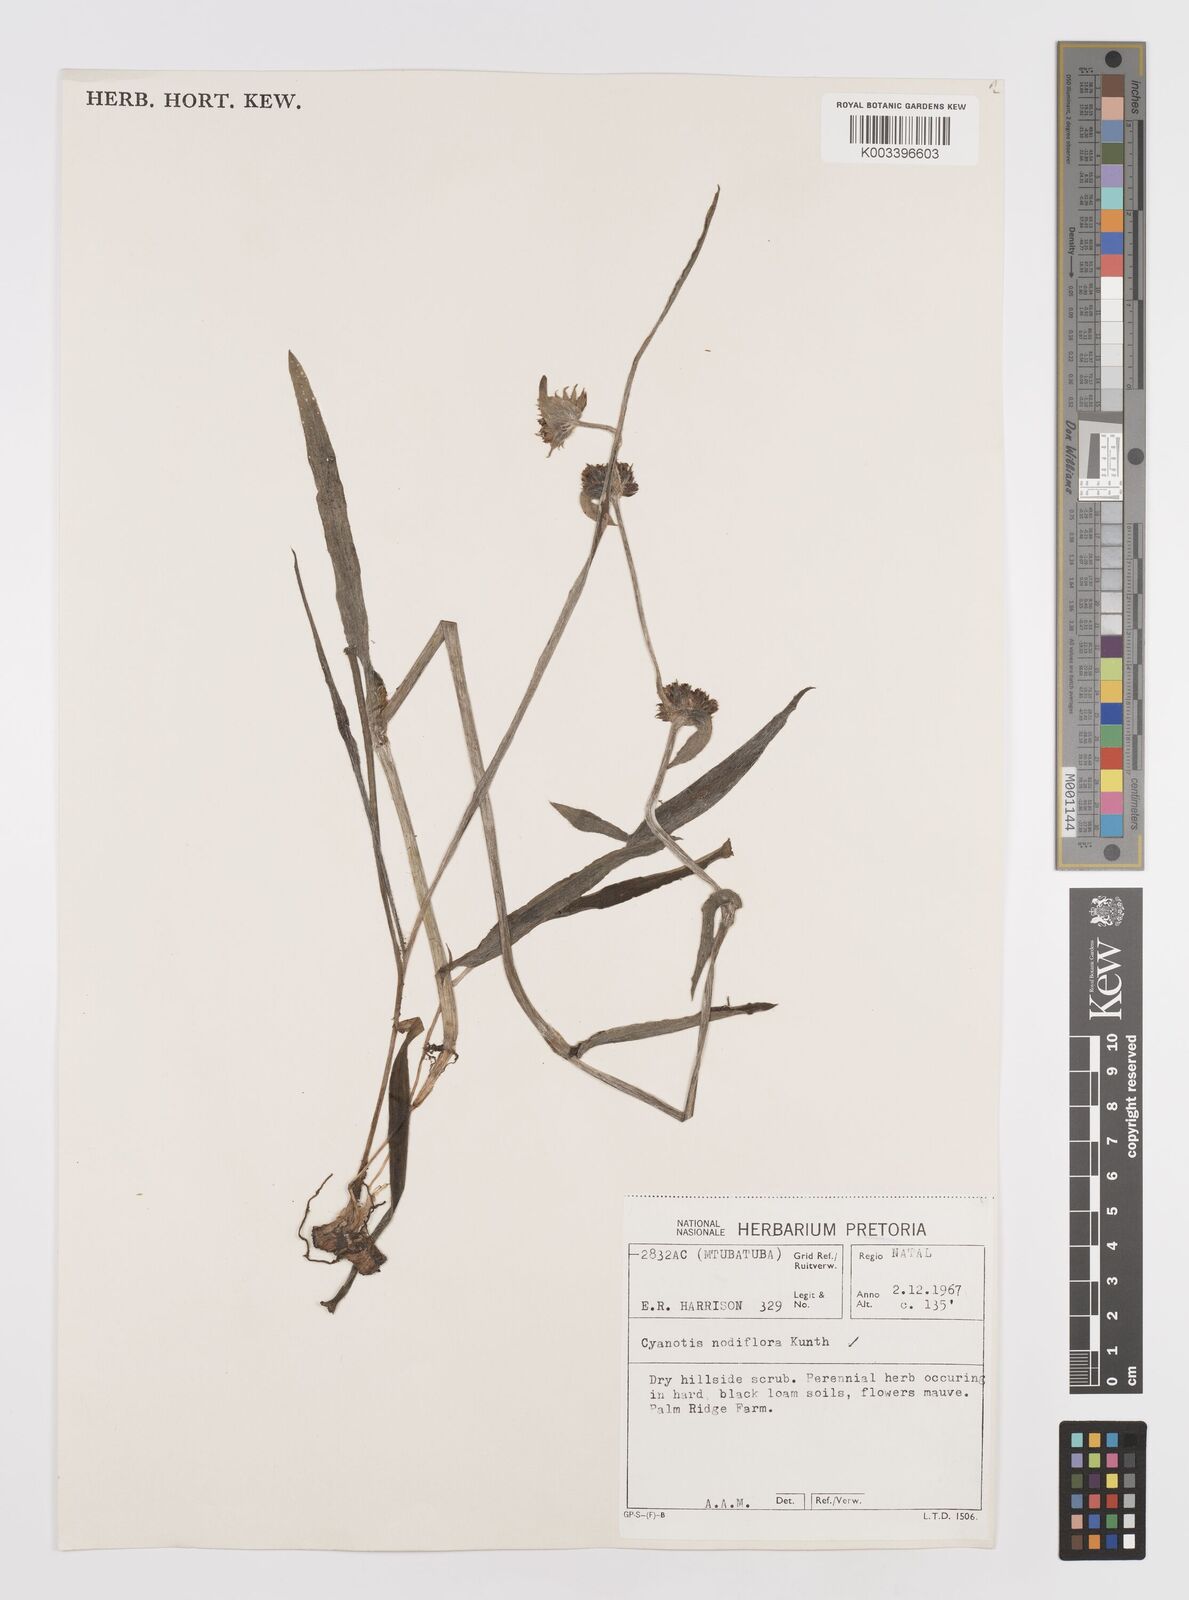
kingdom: Plantae
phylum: Tracheophyta
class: Liliopsida
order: Commelinales
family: Commelinaceae
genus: Cyanotis
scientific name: Cyanotis speciosa
